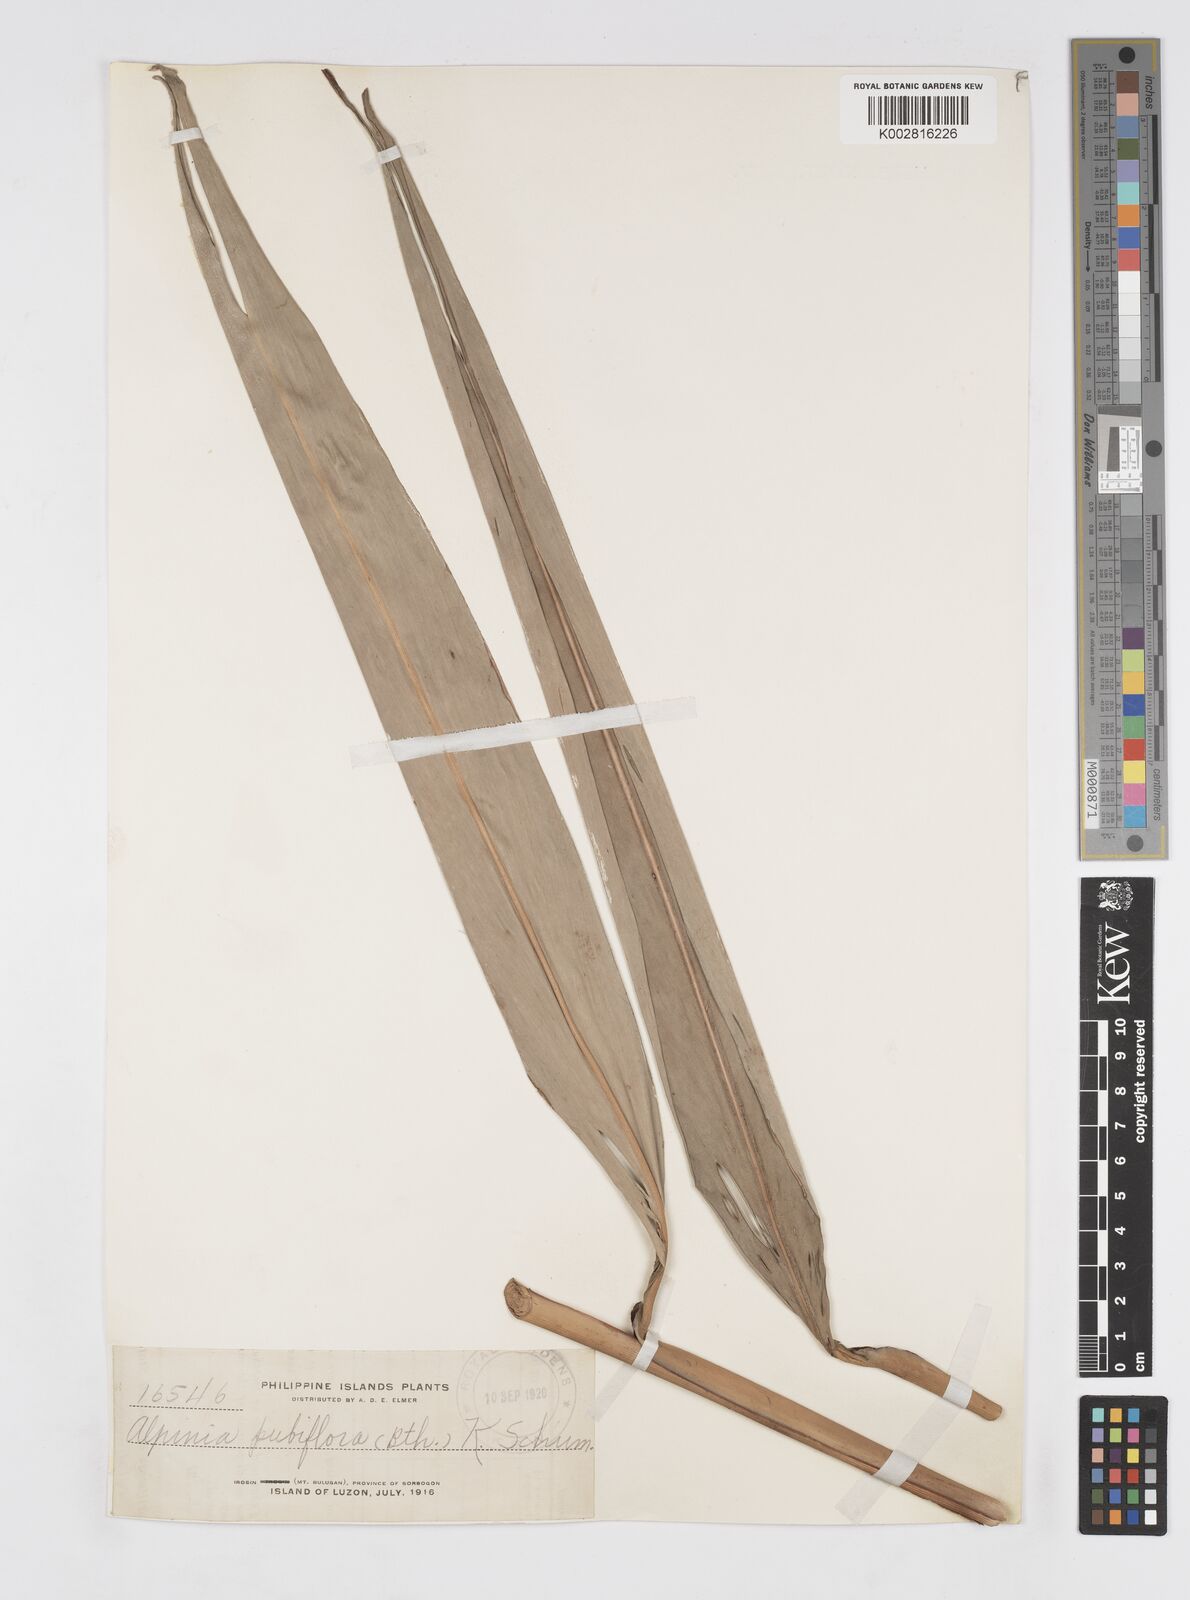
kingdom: Plantae
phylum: Tracheophyta
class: Liliopsida
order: Zingiberales
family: Zingiberaceae
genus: Alpinia
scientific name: Alpinia pubiflora
